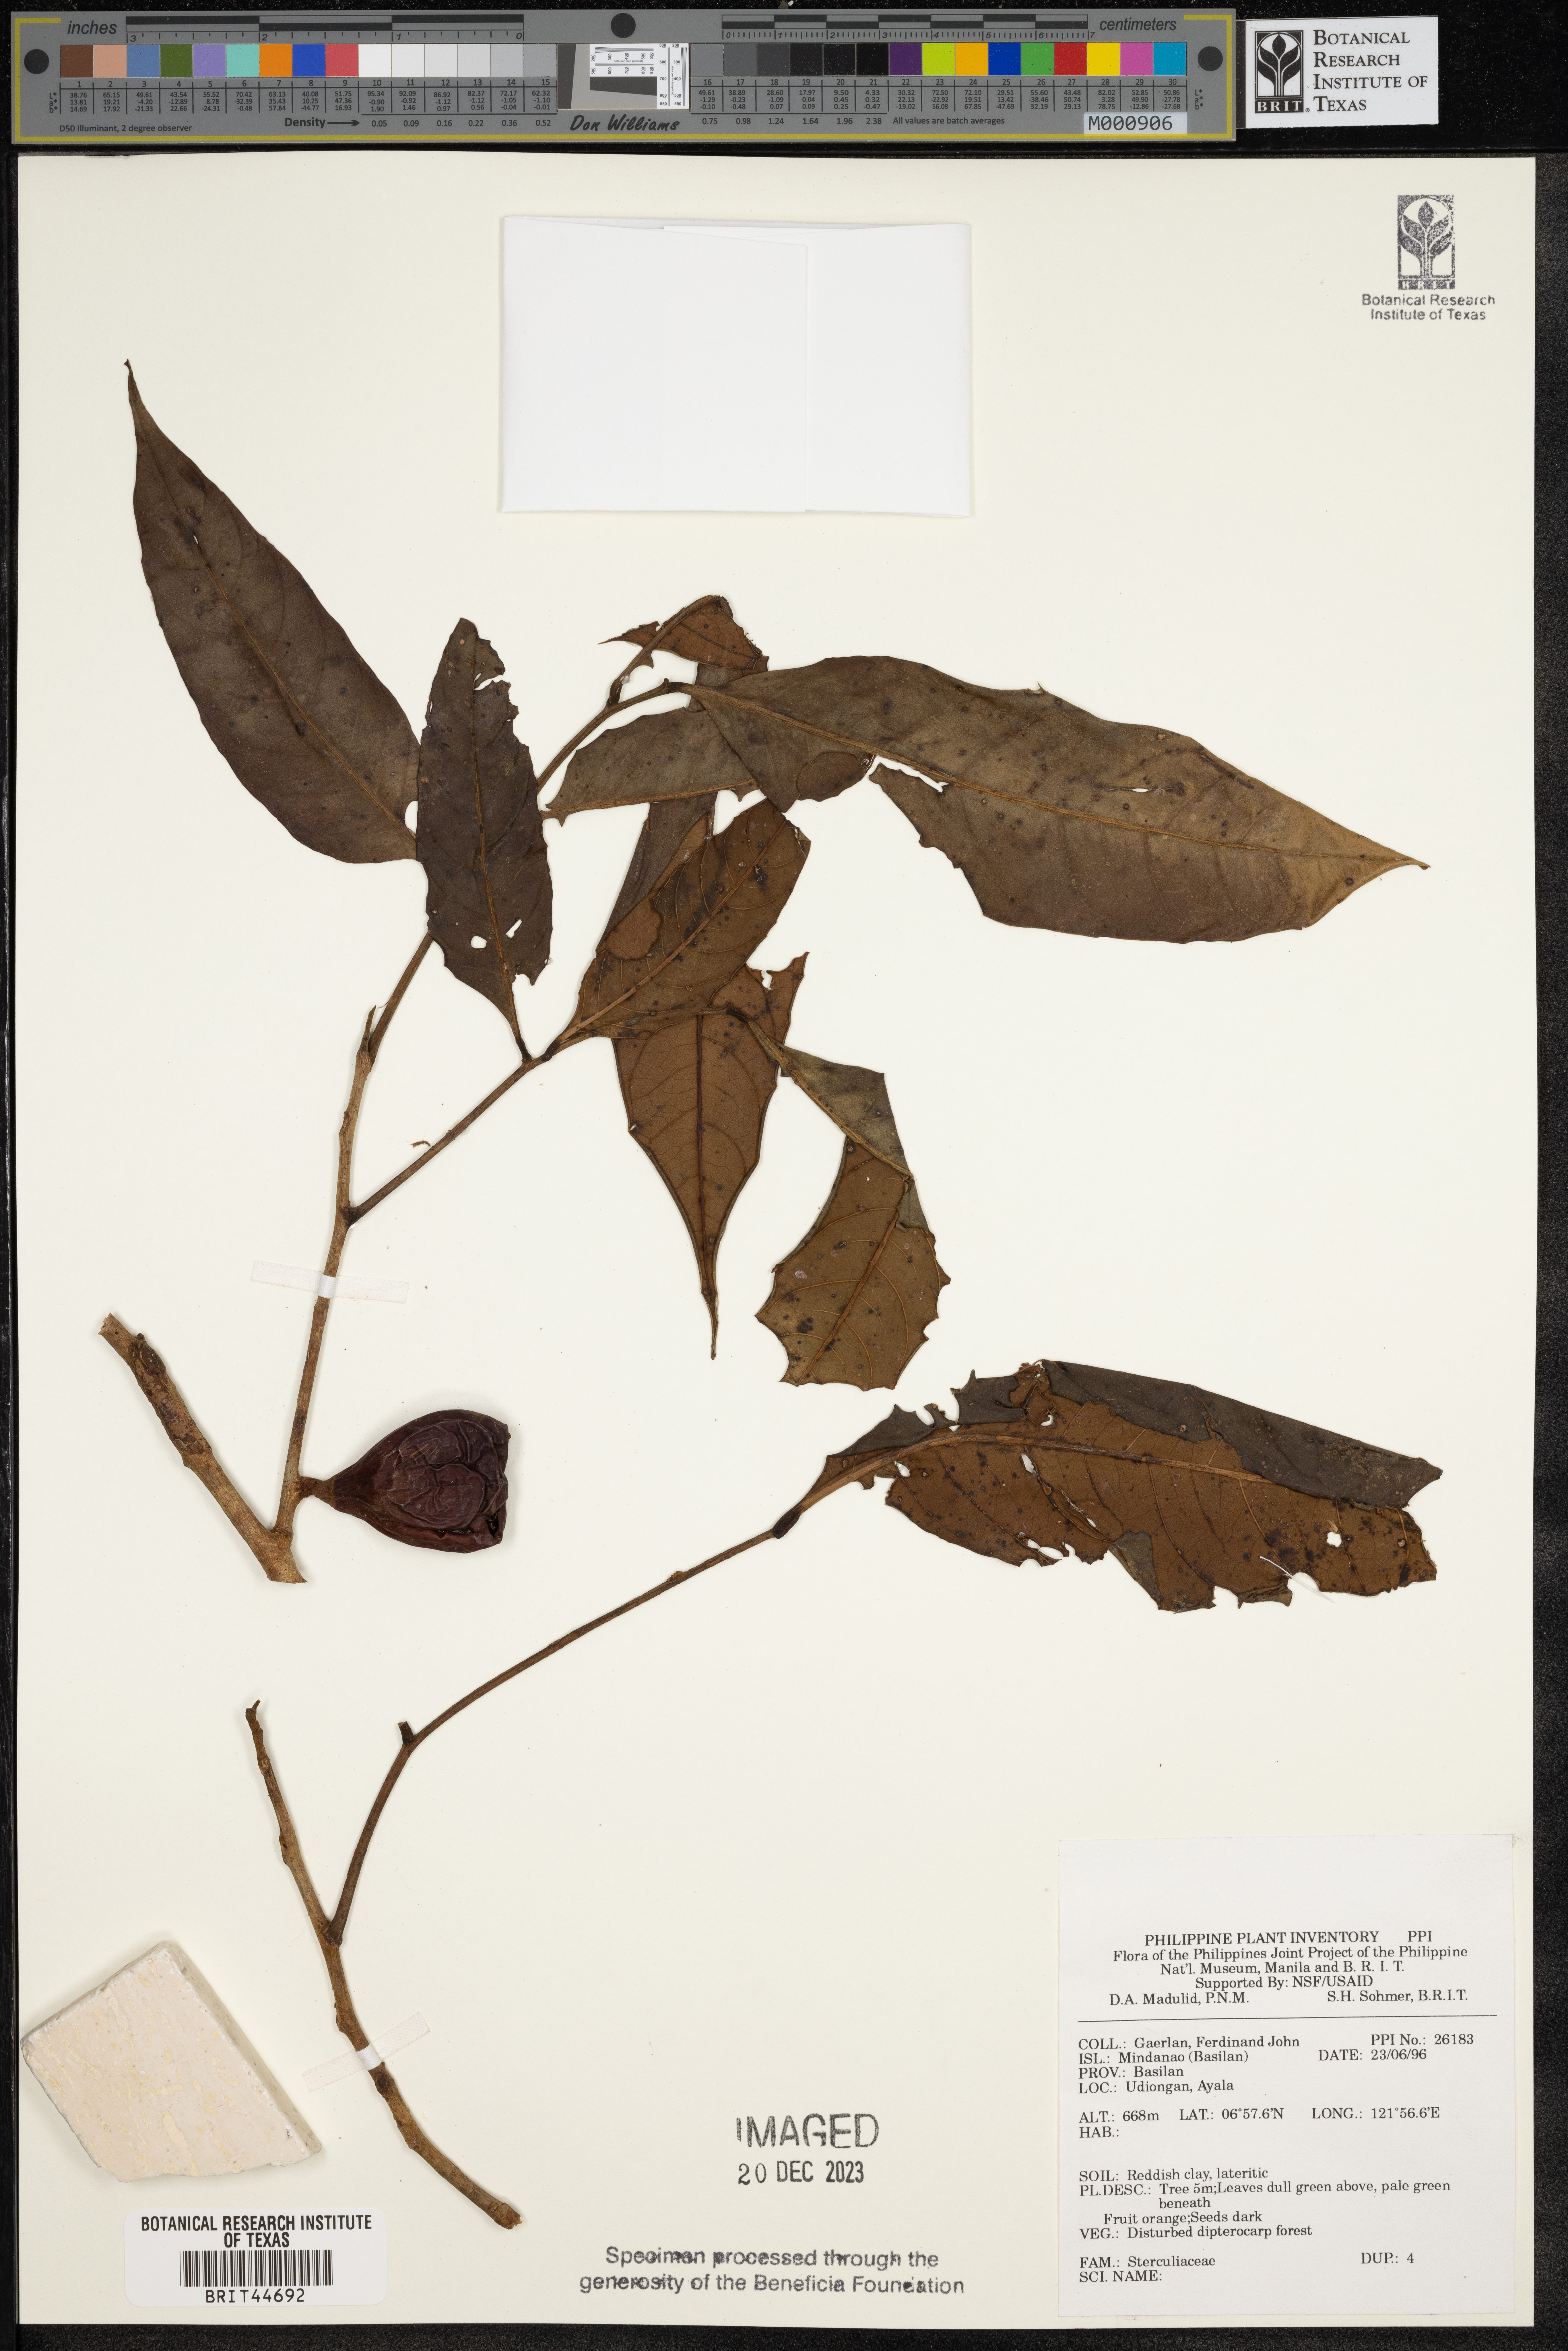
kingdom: Plantae
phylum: Tracheophyta
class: Magnoliopsida
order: Malvales
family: Sterculiaceae
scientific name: Sterculiaceae
